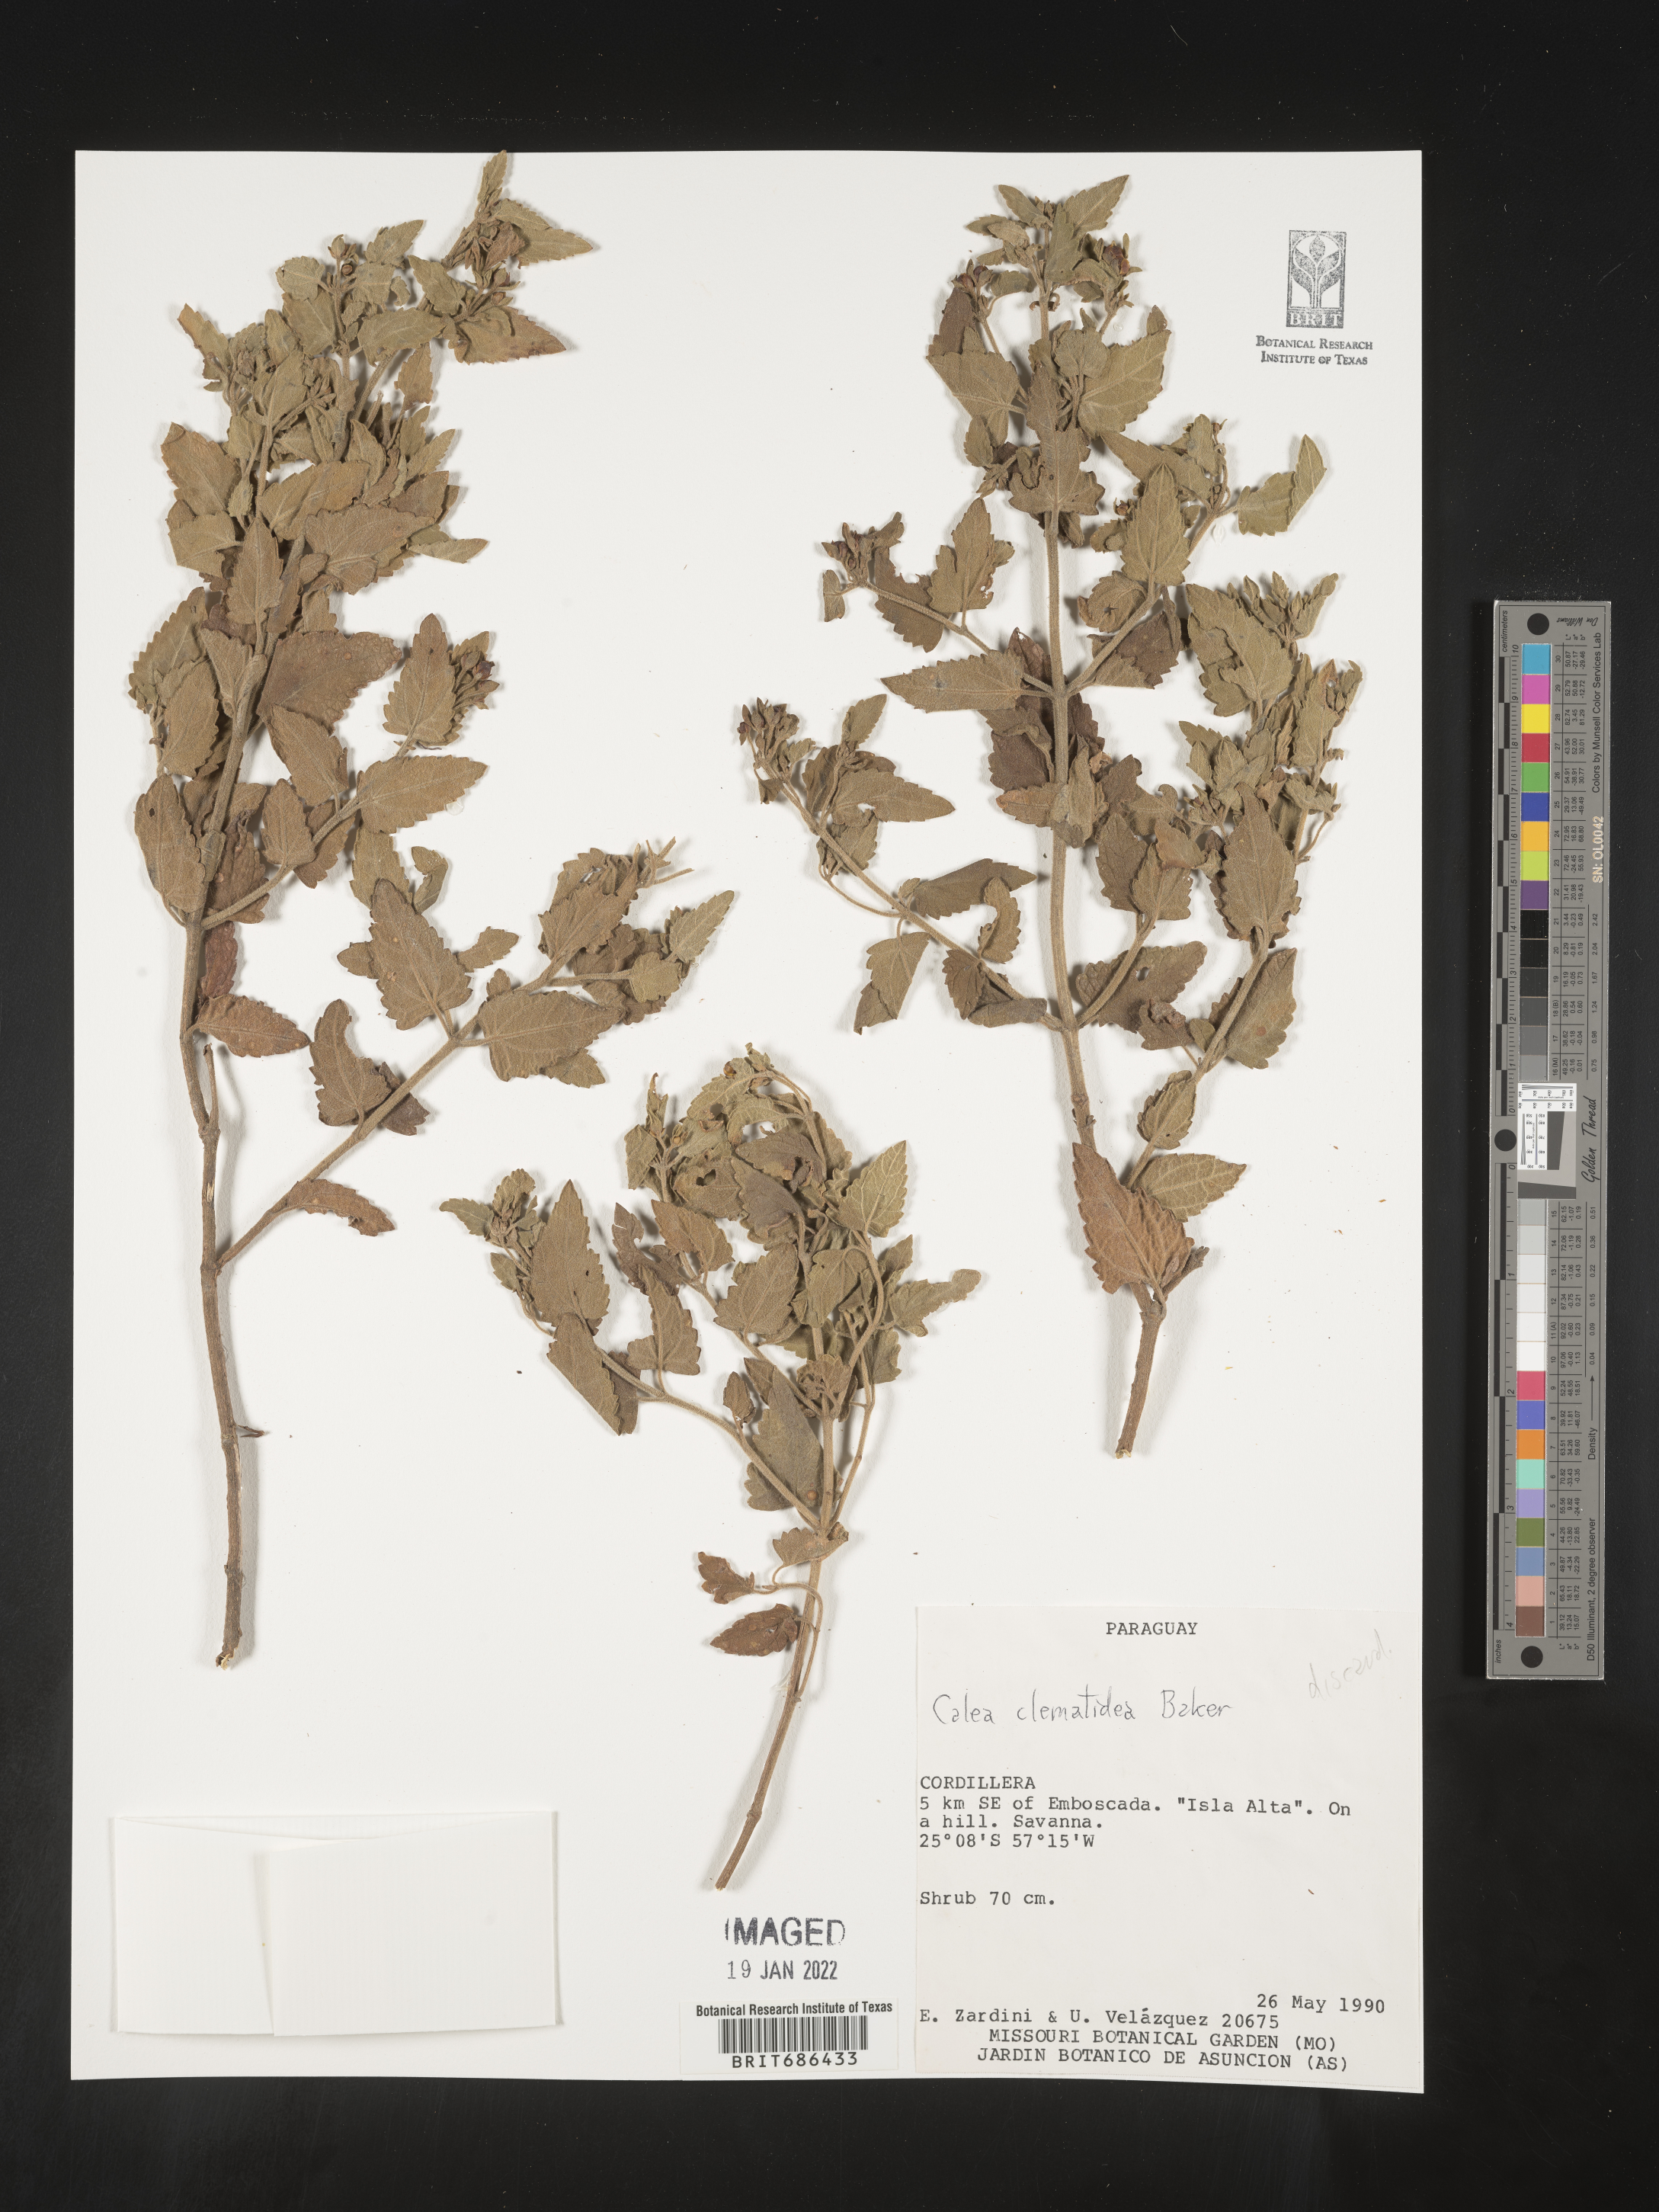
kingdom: Plantae
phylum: Tracheophyta
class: Magnoliopsida
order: Asterales
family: Asteraceae
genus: Calea
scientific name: Calea
